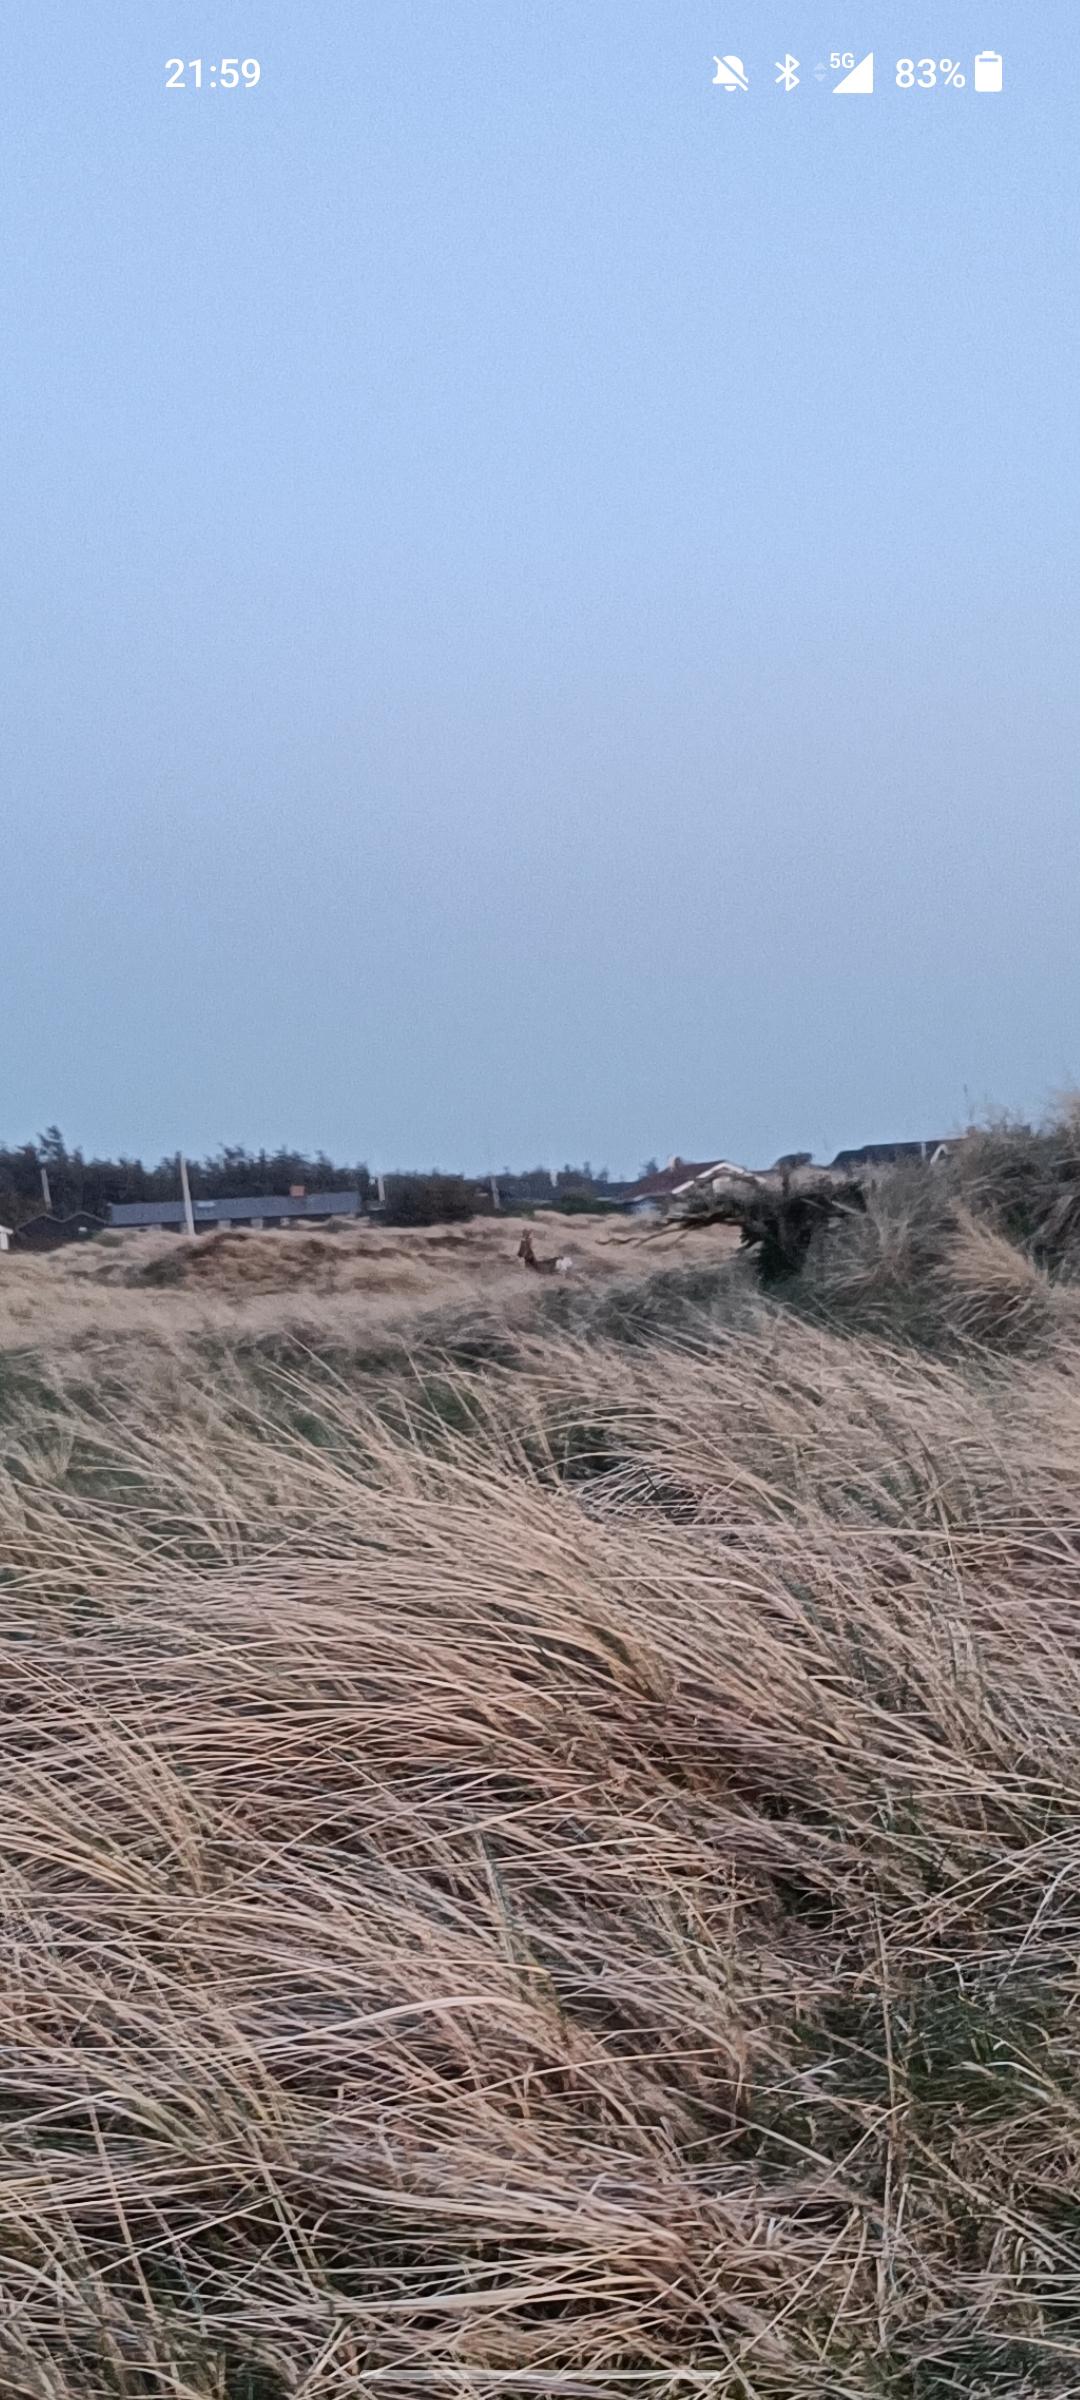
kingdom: Animalia
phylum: Chordata
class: Mammalia
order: Artiodactyla
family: Cervidae
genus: Capreolus
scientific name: Capreolus capreolus
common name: Rådyr
